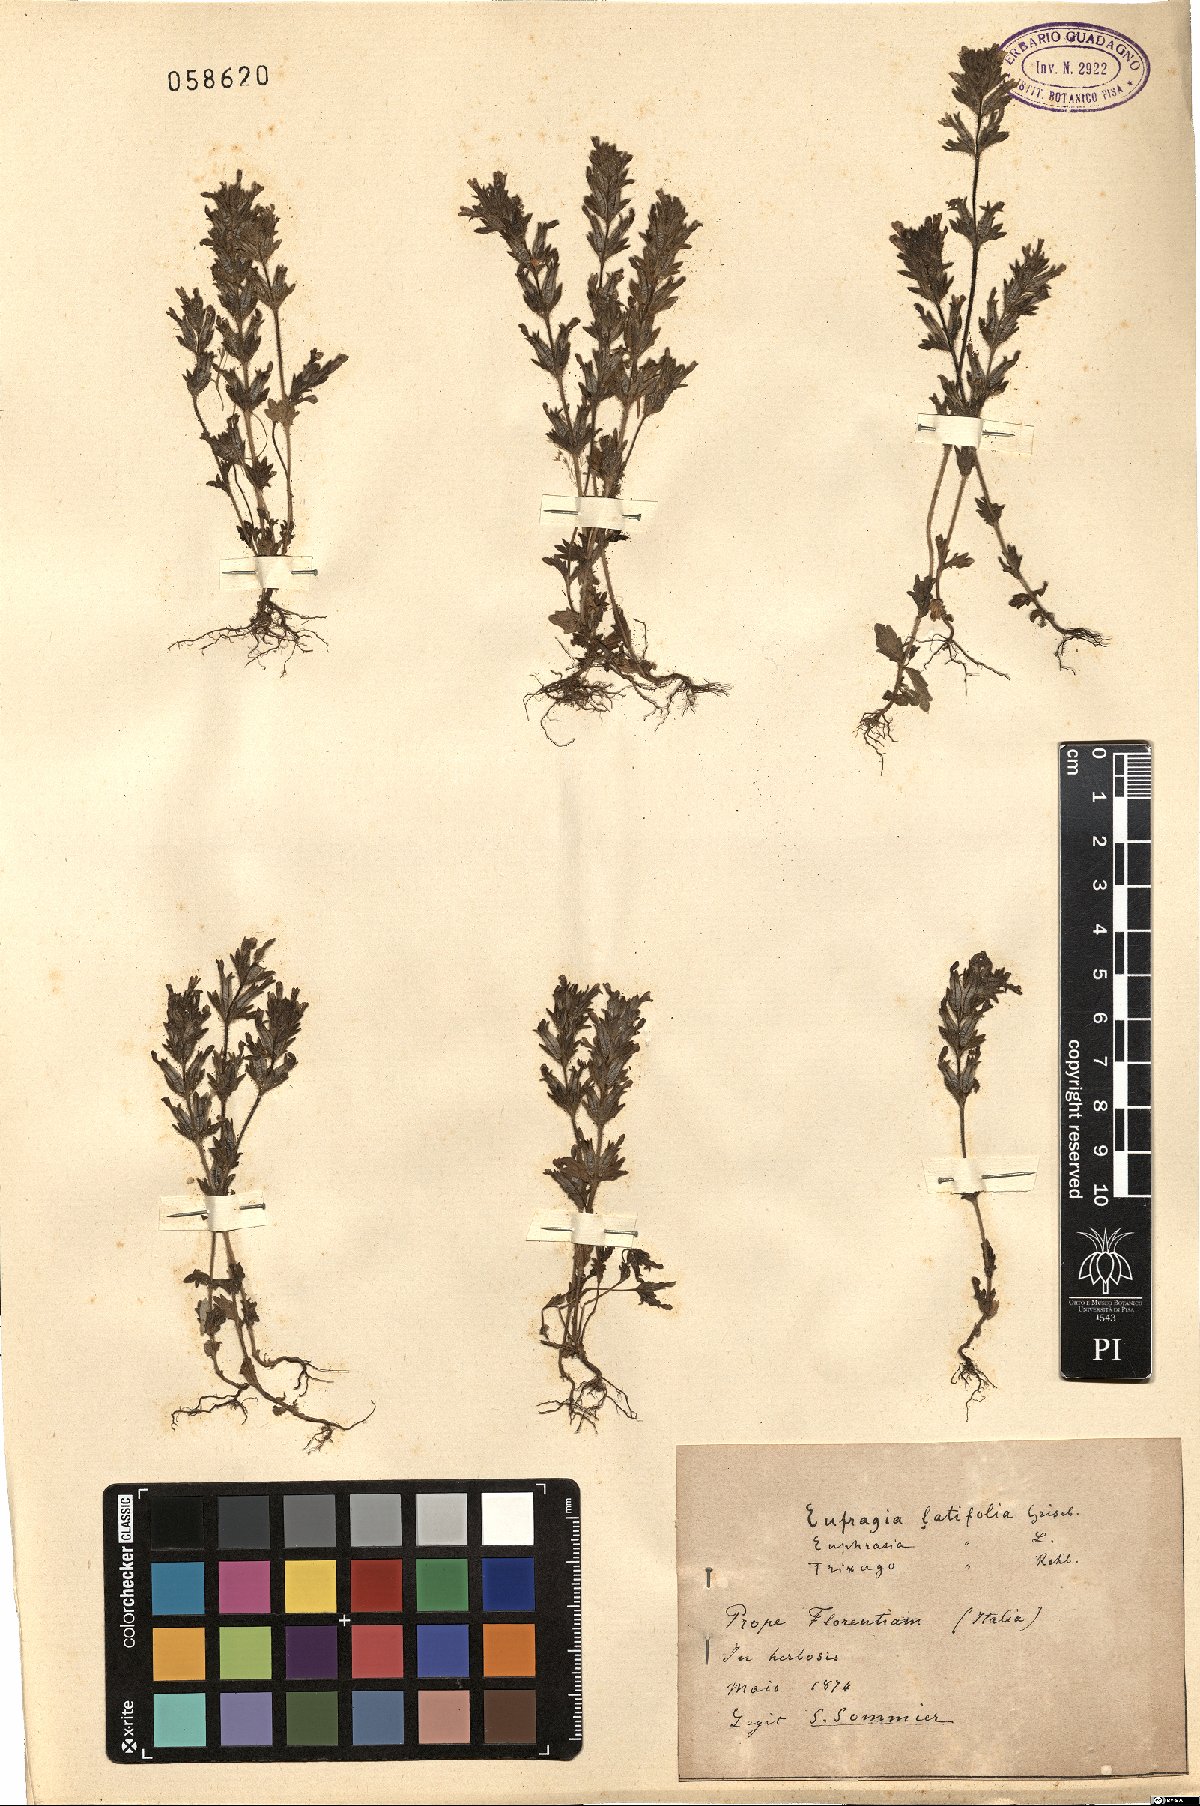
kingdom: Plantae
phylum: Tracheophyta
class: Magnoliopsida
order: Lamiales
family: Orobanchaceae
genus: Parentucellia
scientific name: Parentucellia latifolia
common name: Broadleaf glandweed
